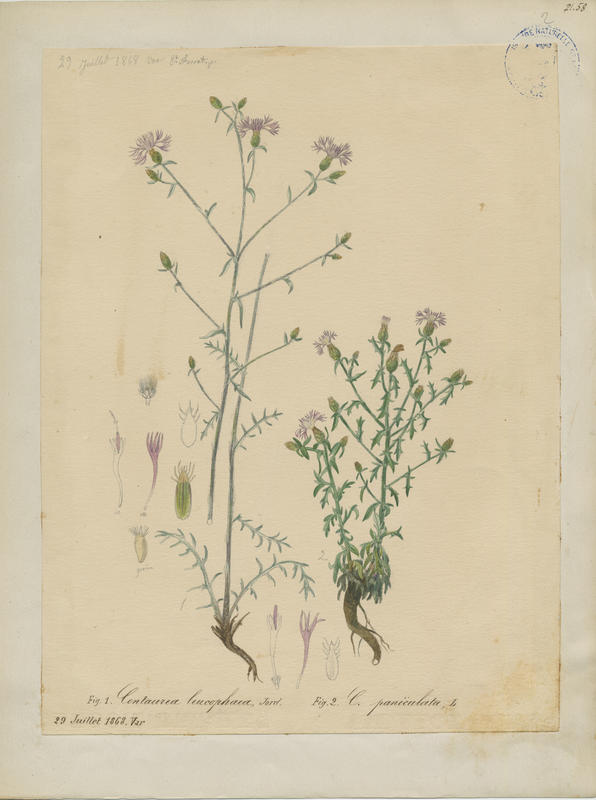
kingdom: Plantae
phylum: Tracheophyta
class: Magnoliopsida
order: Asterales
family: Asteraceae
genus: Centaurea
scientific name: Centaurea paniculata
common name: Jersey knapweed
